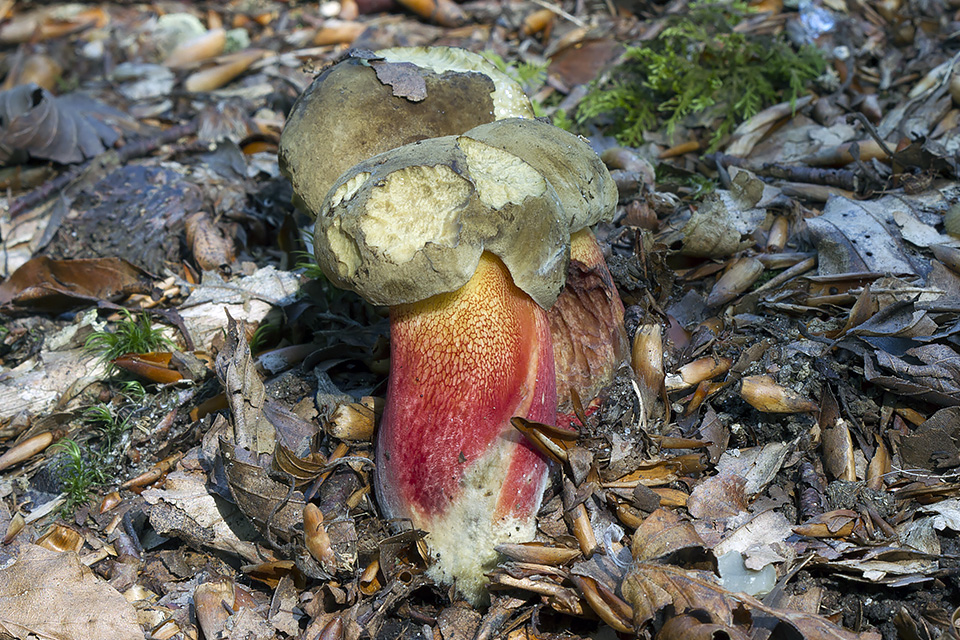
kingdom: Fungi
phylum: Basidiomycota
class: Agaricomycetes
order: Boletales
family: Boletaceae
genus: Caloboletus
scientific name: Caloboletus calopus
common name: skønfodet rørhat
